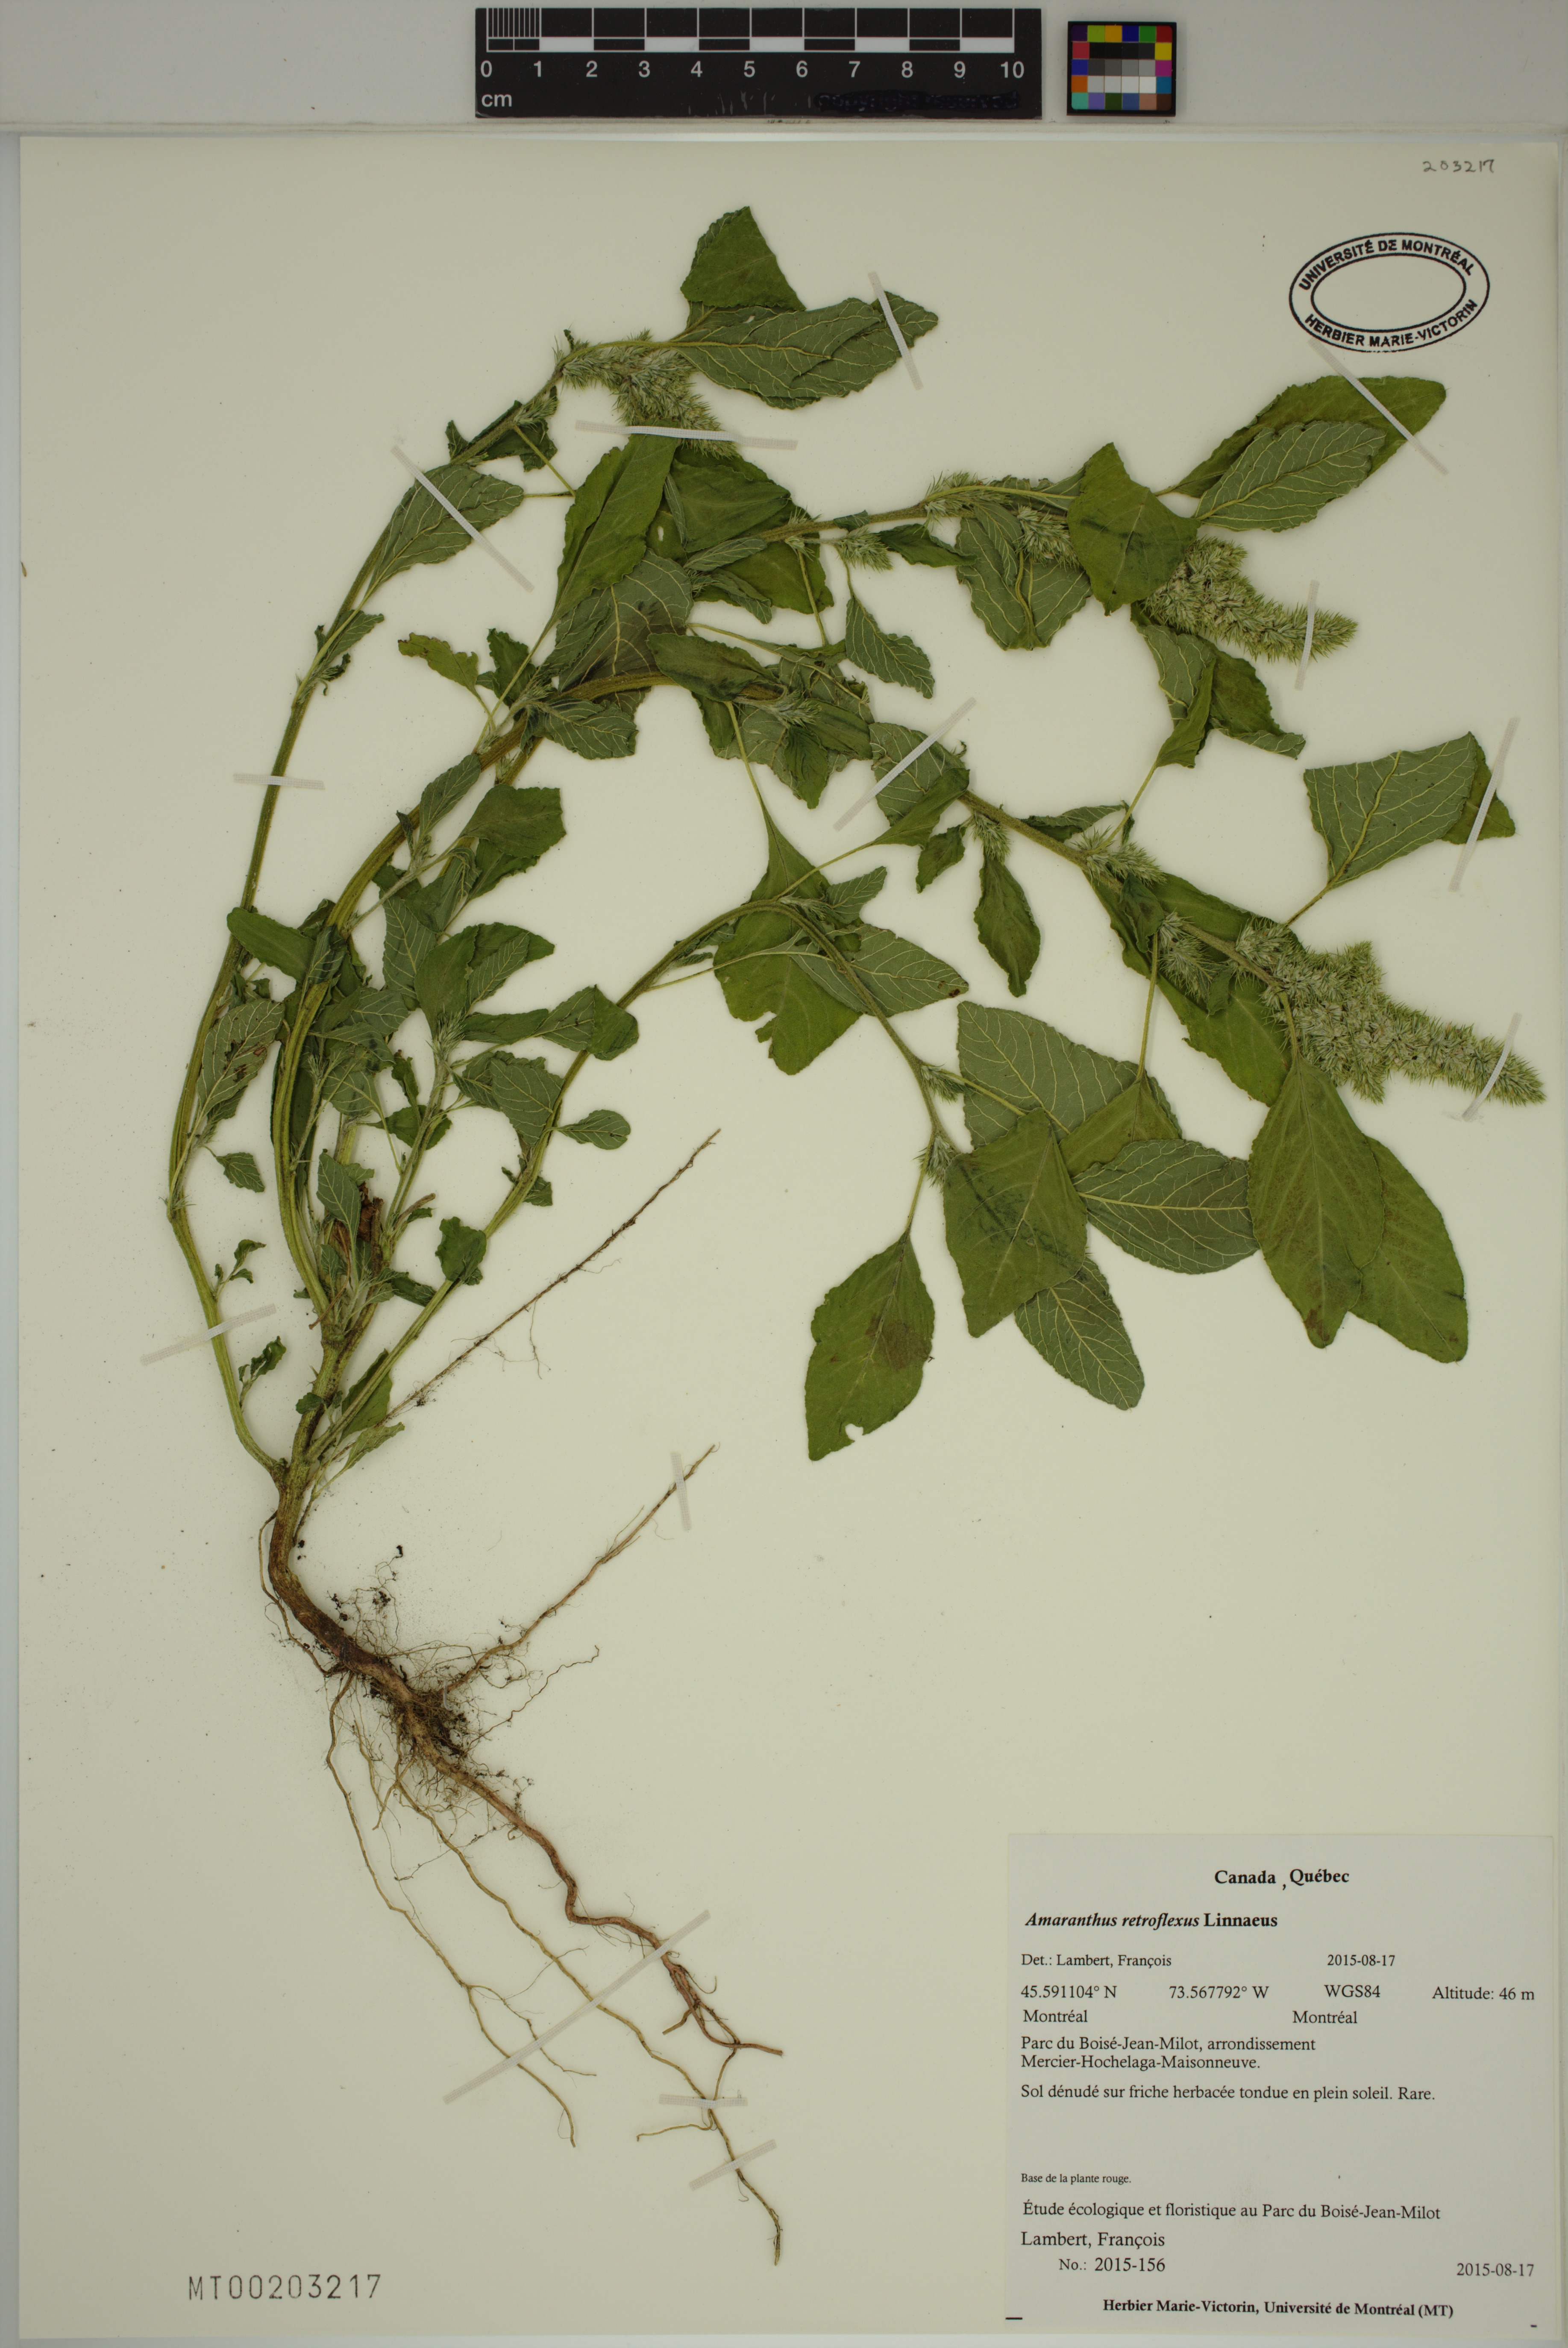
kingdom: Plantae
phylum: Tracheophyta
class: Magnoliopsida
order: Caryophyllales
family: Amaranthaceae
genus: Amaranthus
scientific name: Amaranthus retroflexus
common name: Redroot amaranth
